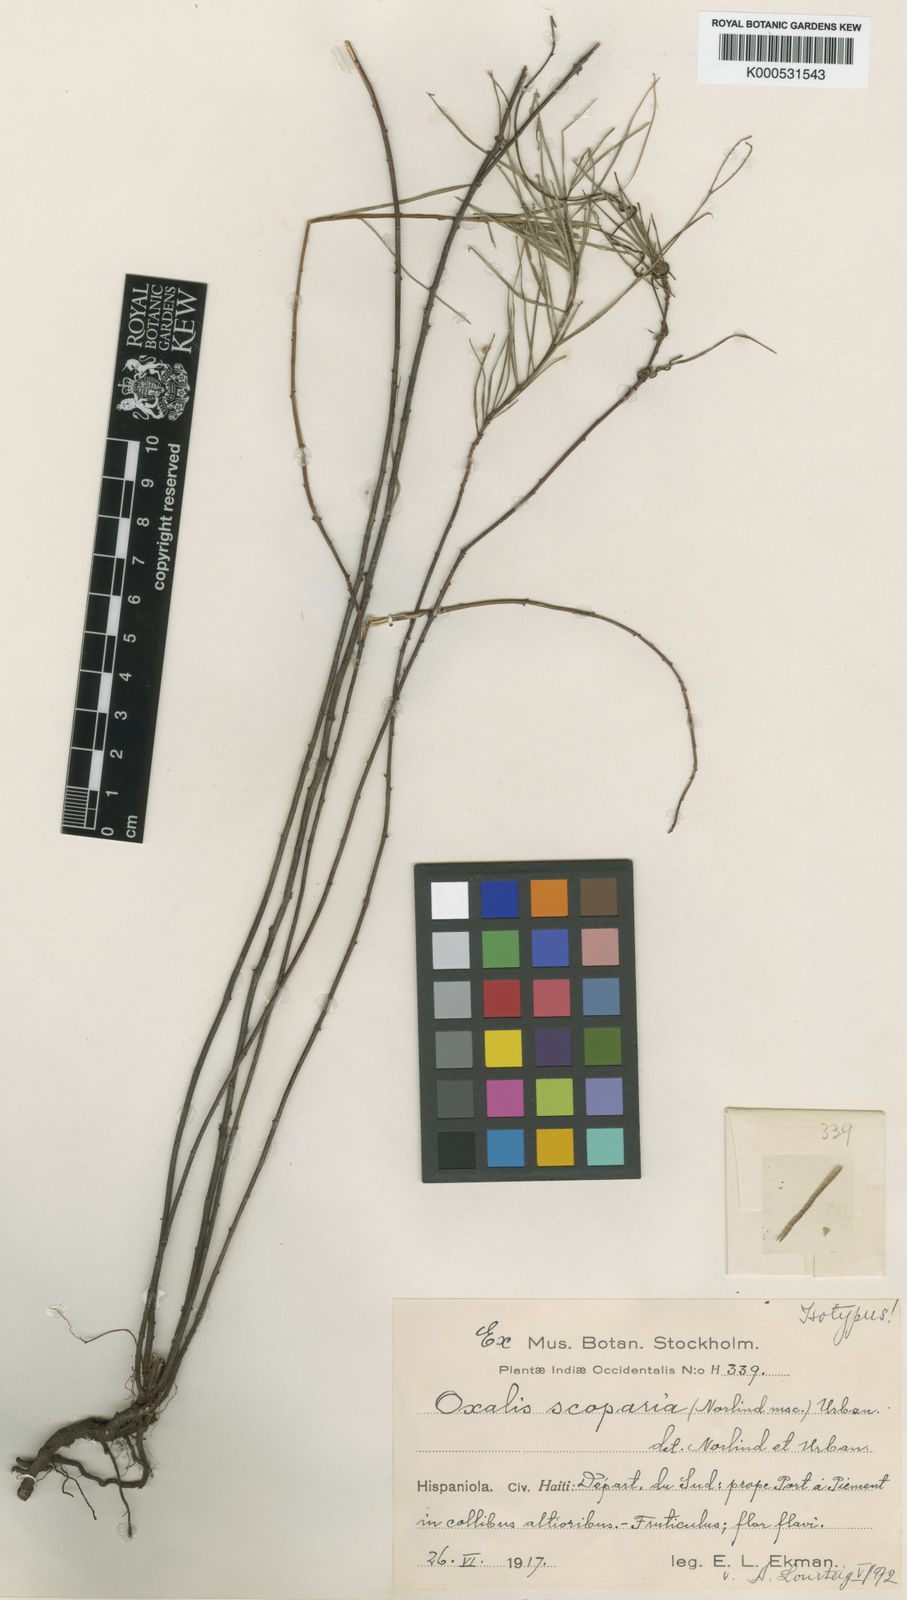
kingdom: Plantae
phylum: Tracheophyta
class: Magnoliopsida
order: Oxalidales
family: Oxalidaceae
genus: Oxalis
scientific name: Oxalis scoparia
